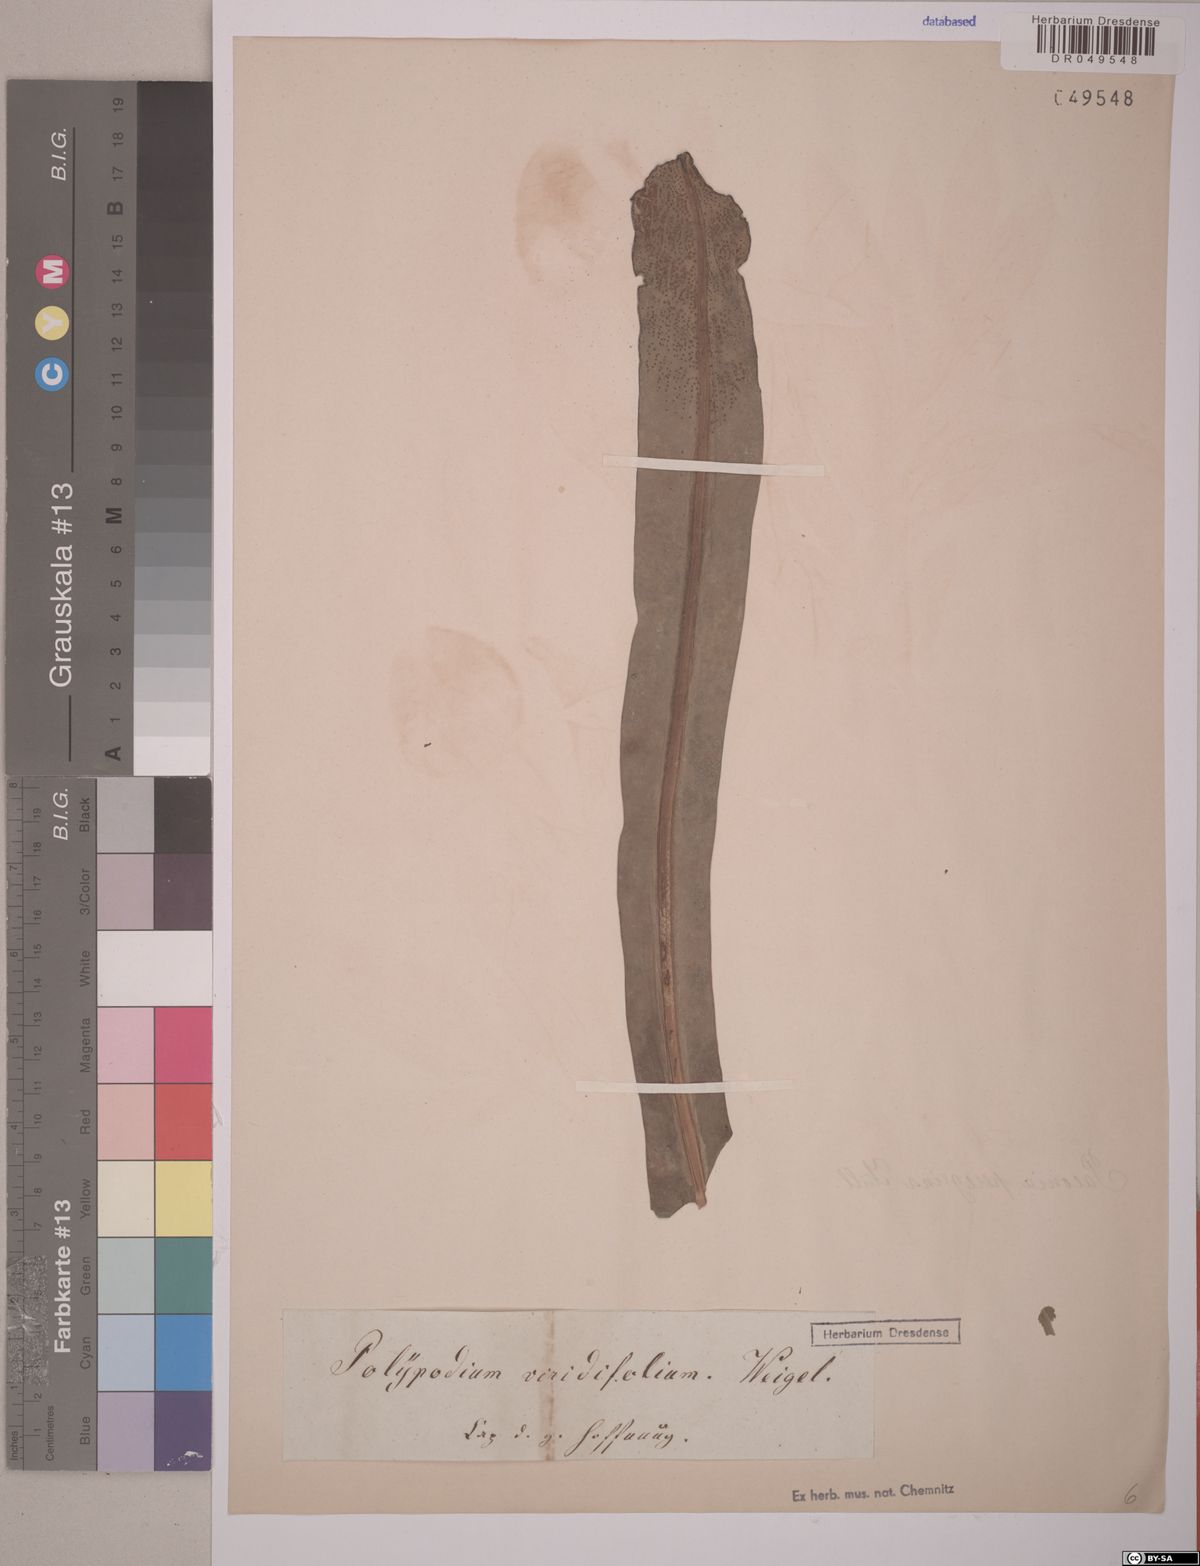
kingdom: Plantae
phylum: Tracheophyta
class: Polypodiopsida
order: Polypodiales
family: Polypodiaceae
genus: Polypodium
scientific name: Polypodium
